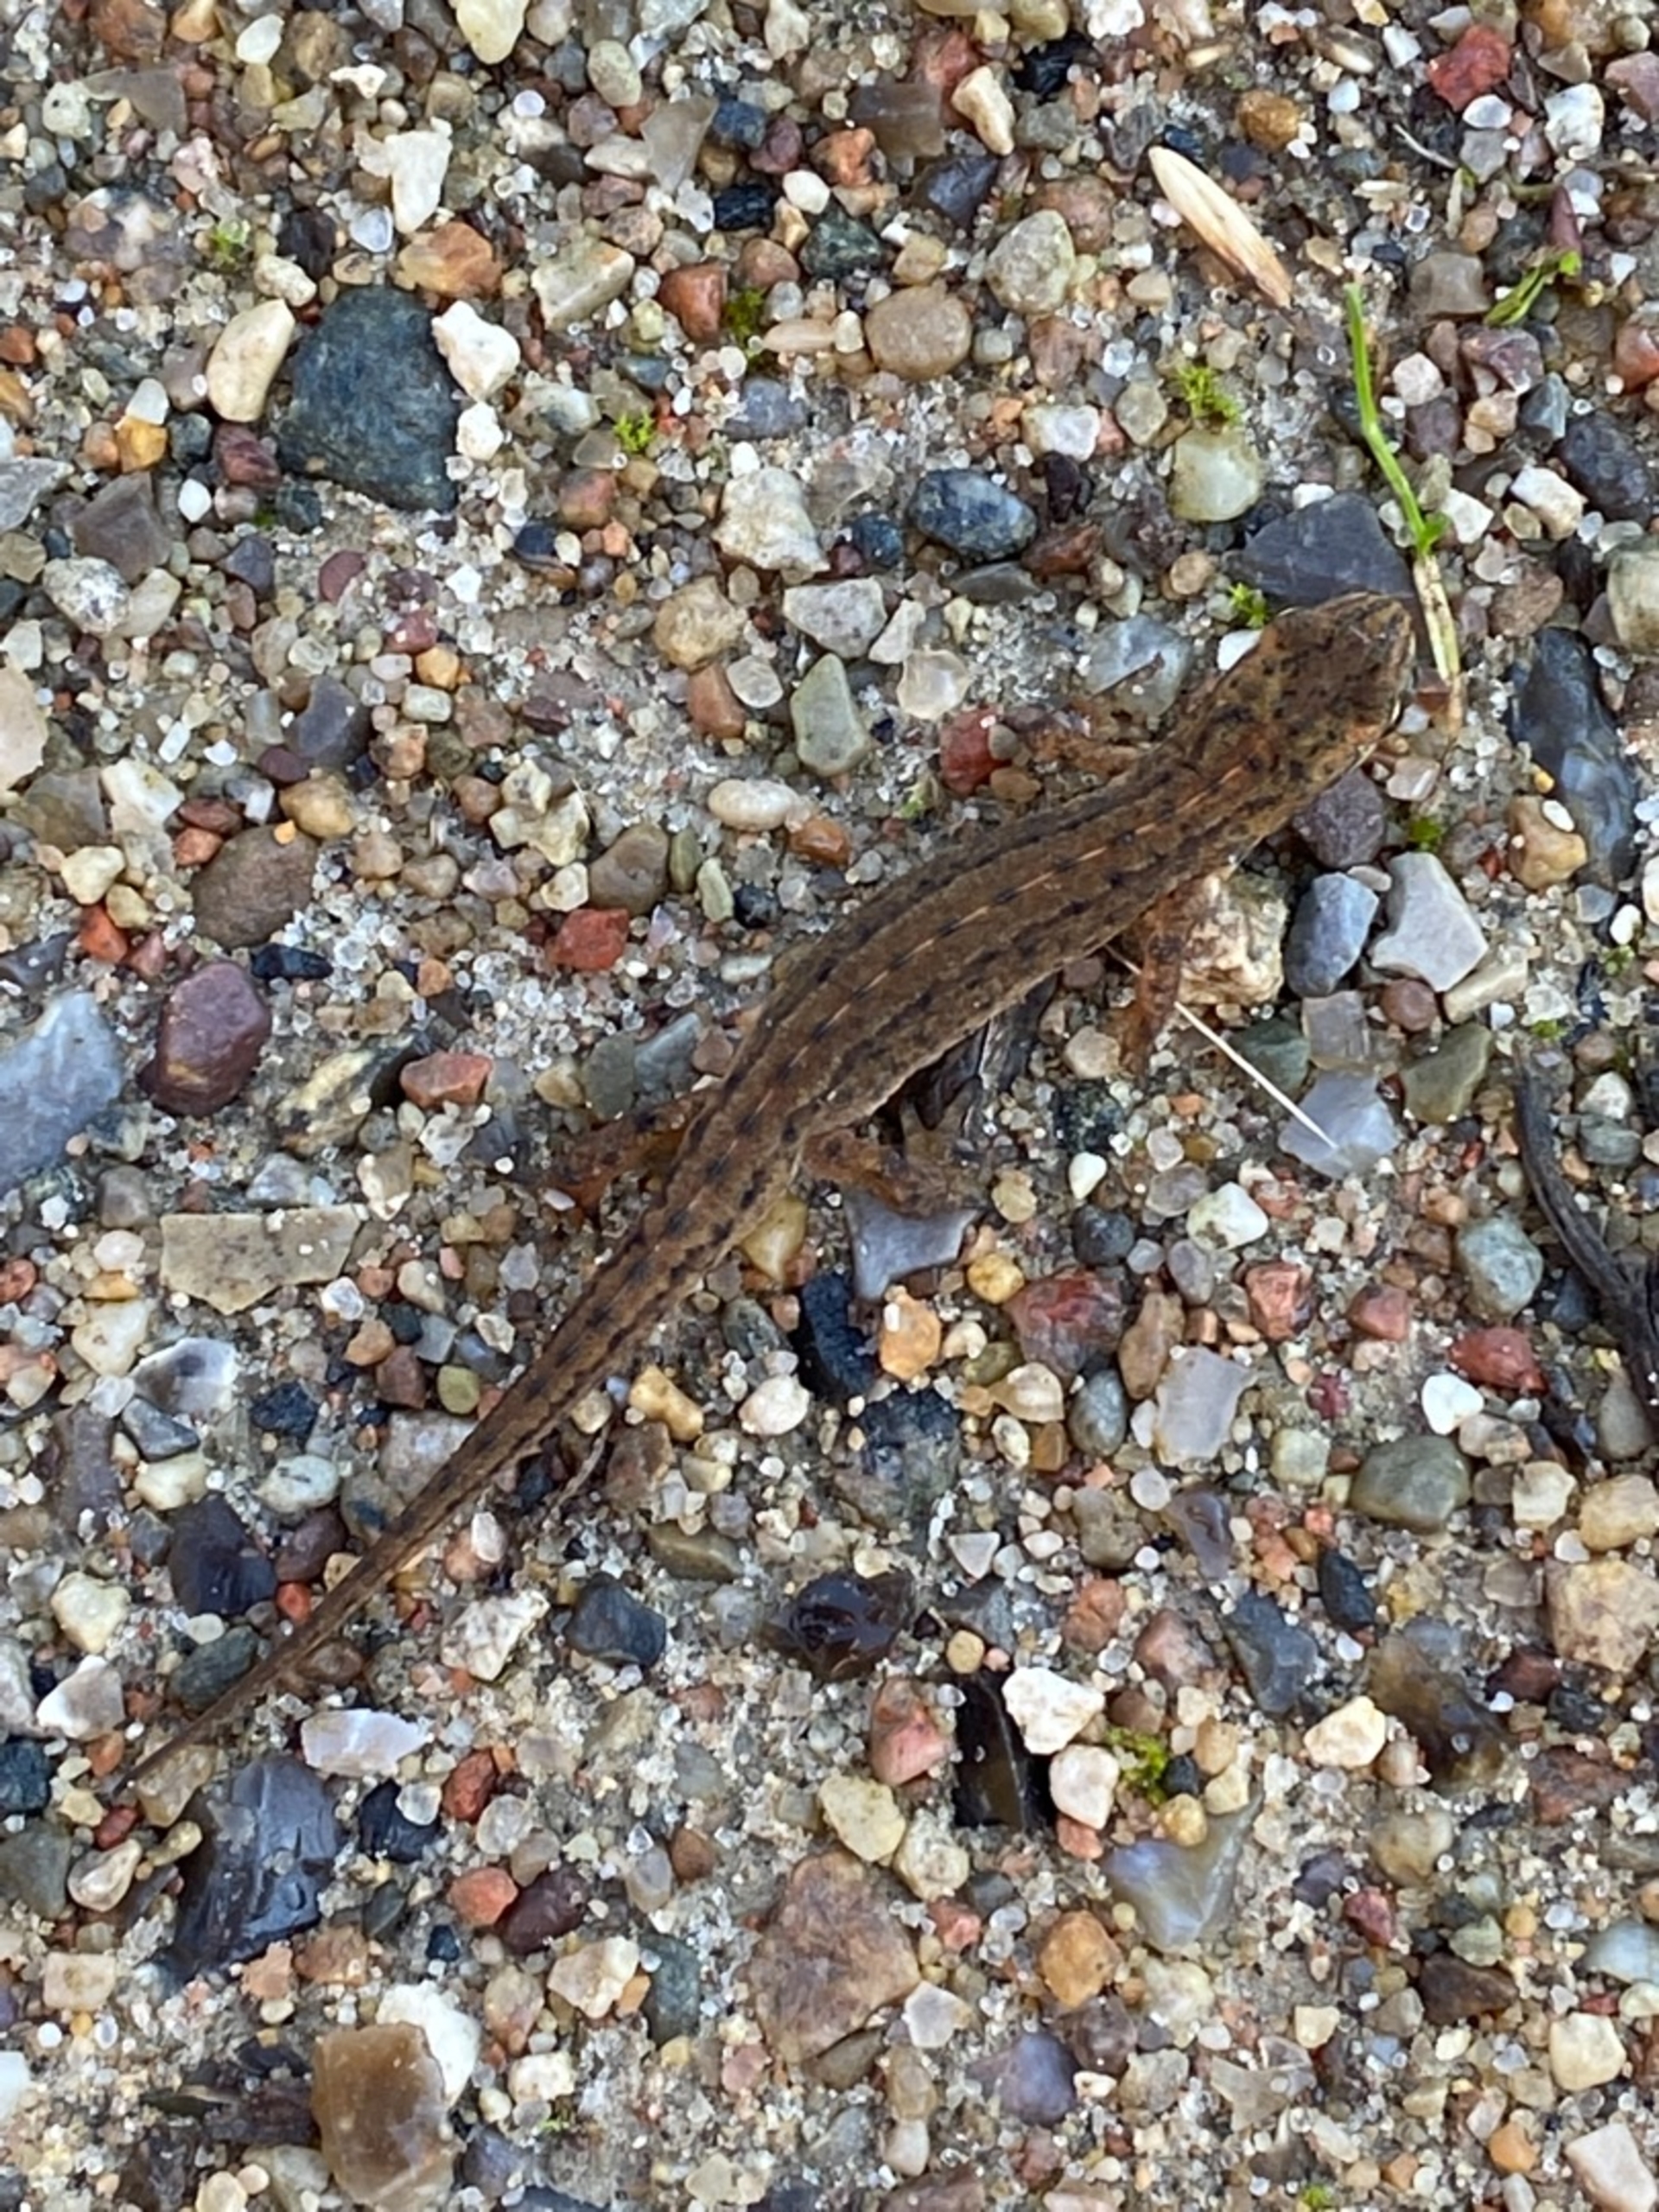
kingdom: Animalia
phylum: Chordata
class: Amphibia
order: Caudata
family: Salamandridae
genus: Lissotriton
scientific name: Lissotriton vulgaris
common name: Lille vandsalamander
